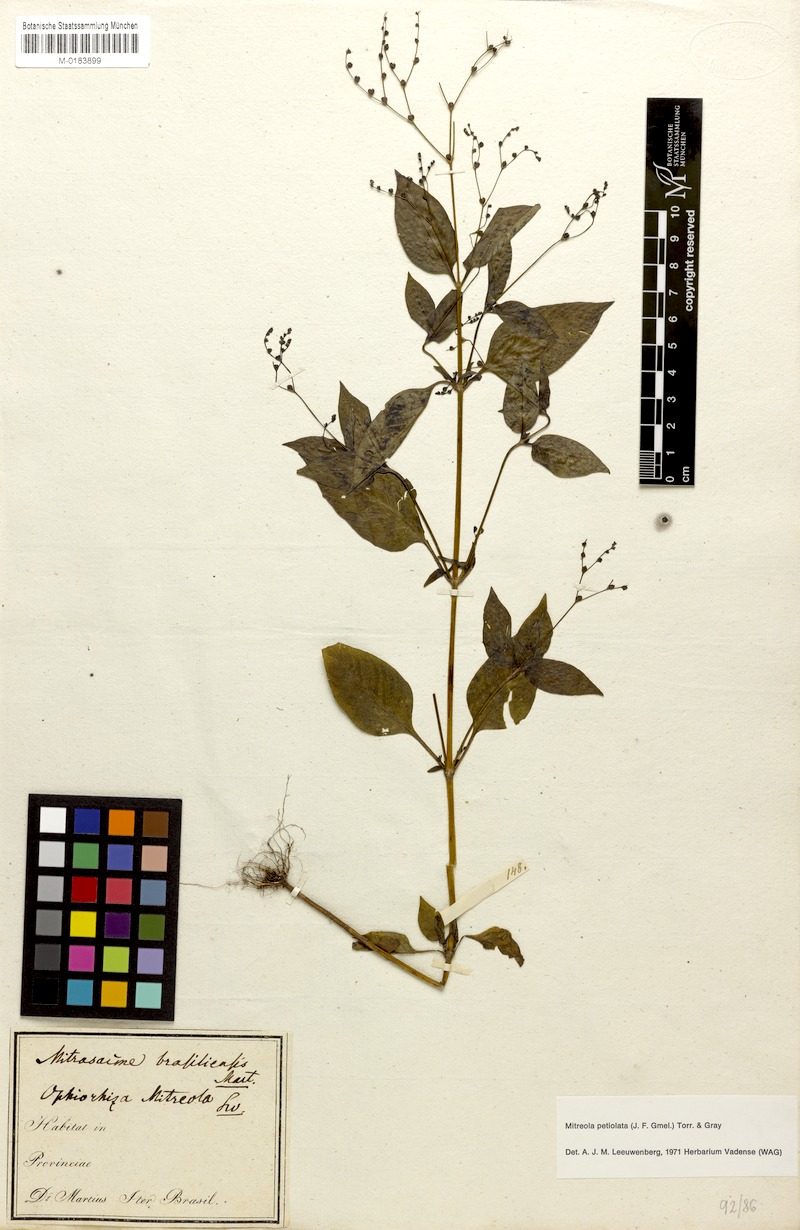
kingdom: Plantae
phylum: Tracheophyta
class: Magnoliopsida
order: Gentianales
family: Loganiaceae
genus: Mitreola
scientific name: Mitreola petiolata
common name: Lax hornpod
